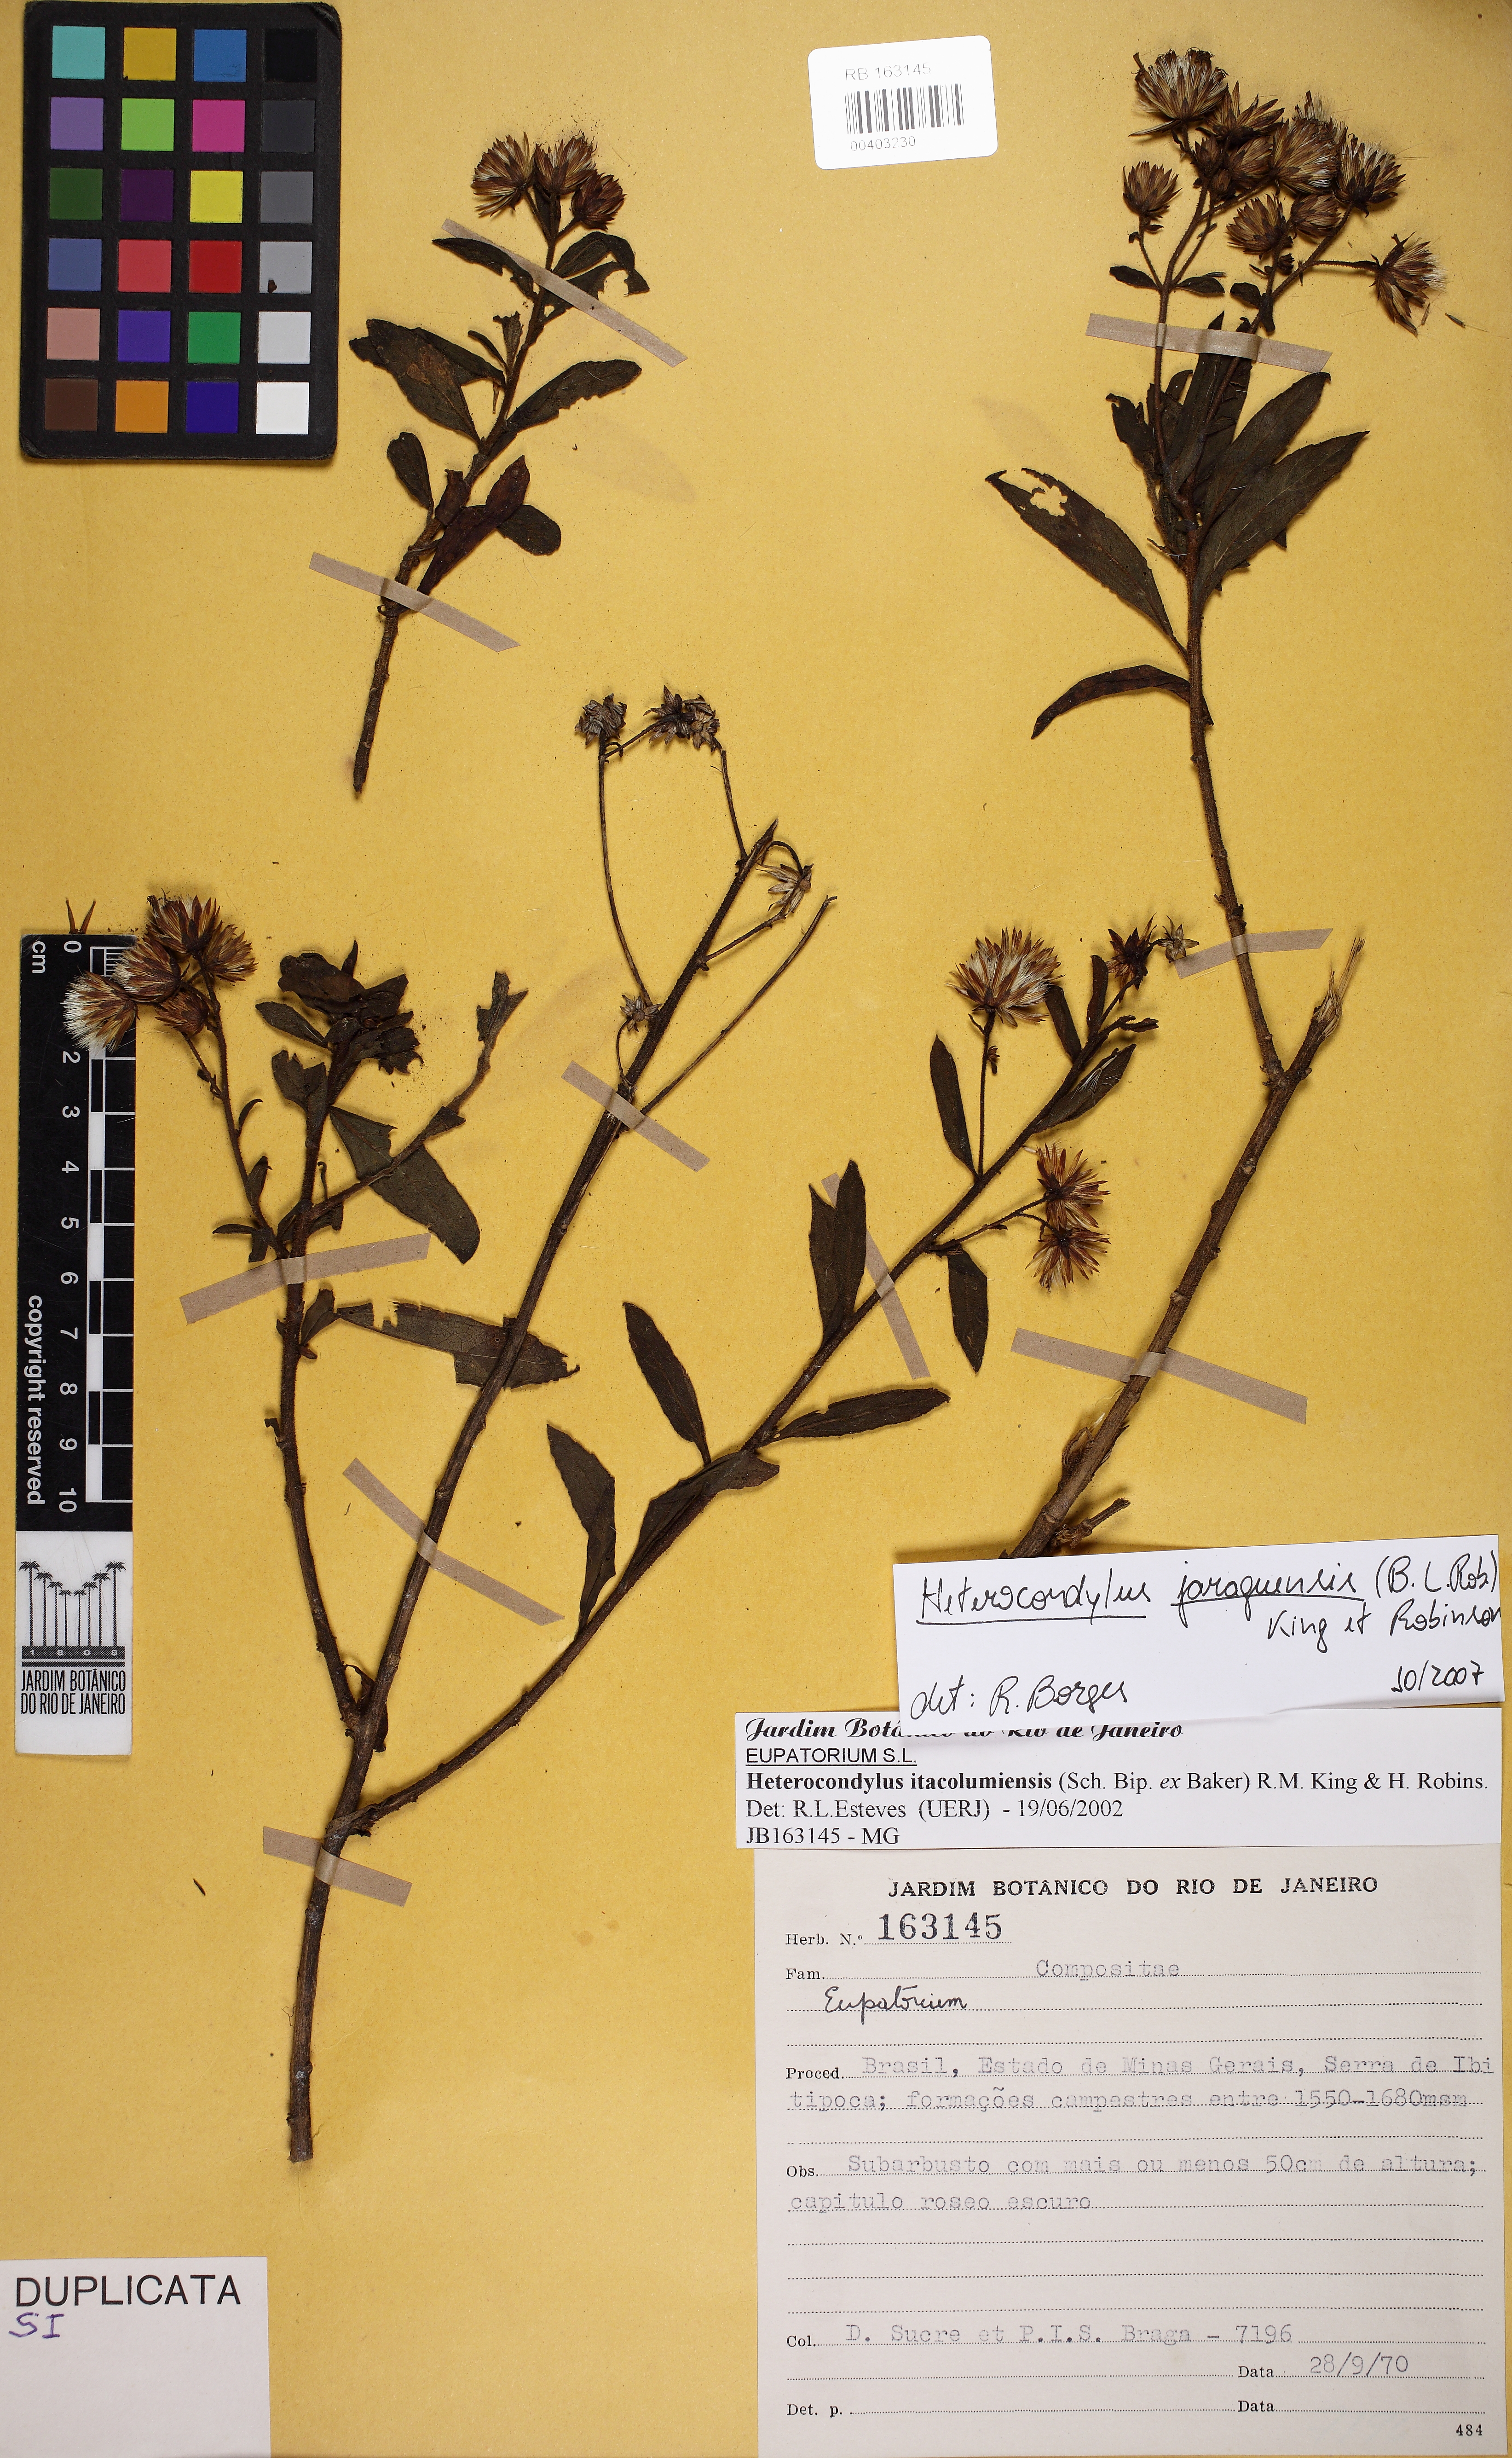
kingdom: Plantae
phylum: Tracheophyta
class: Magnoliopsida
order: Asterales
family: Asteraceae
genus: Heterocondylus
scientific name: Heterocondylus jaraguensis
